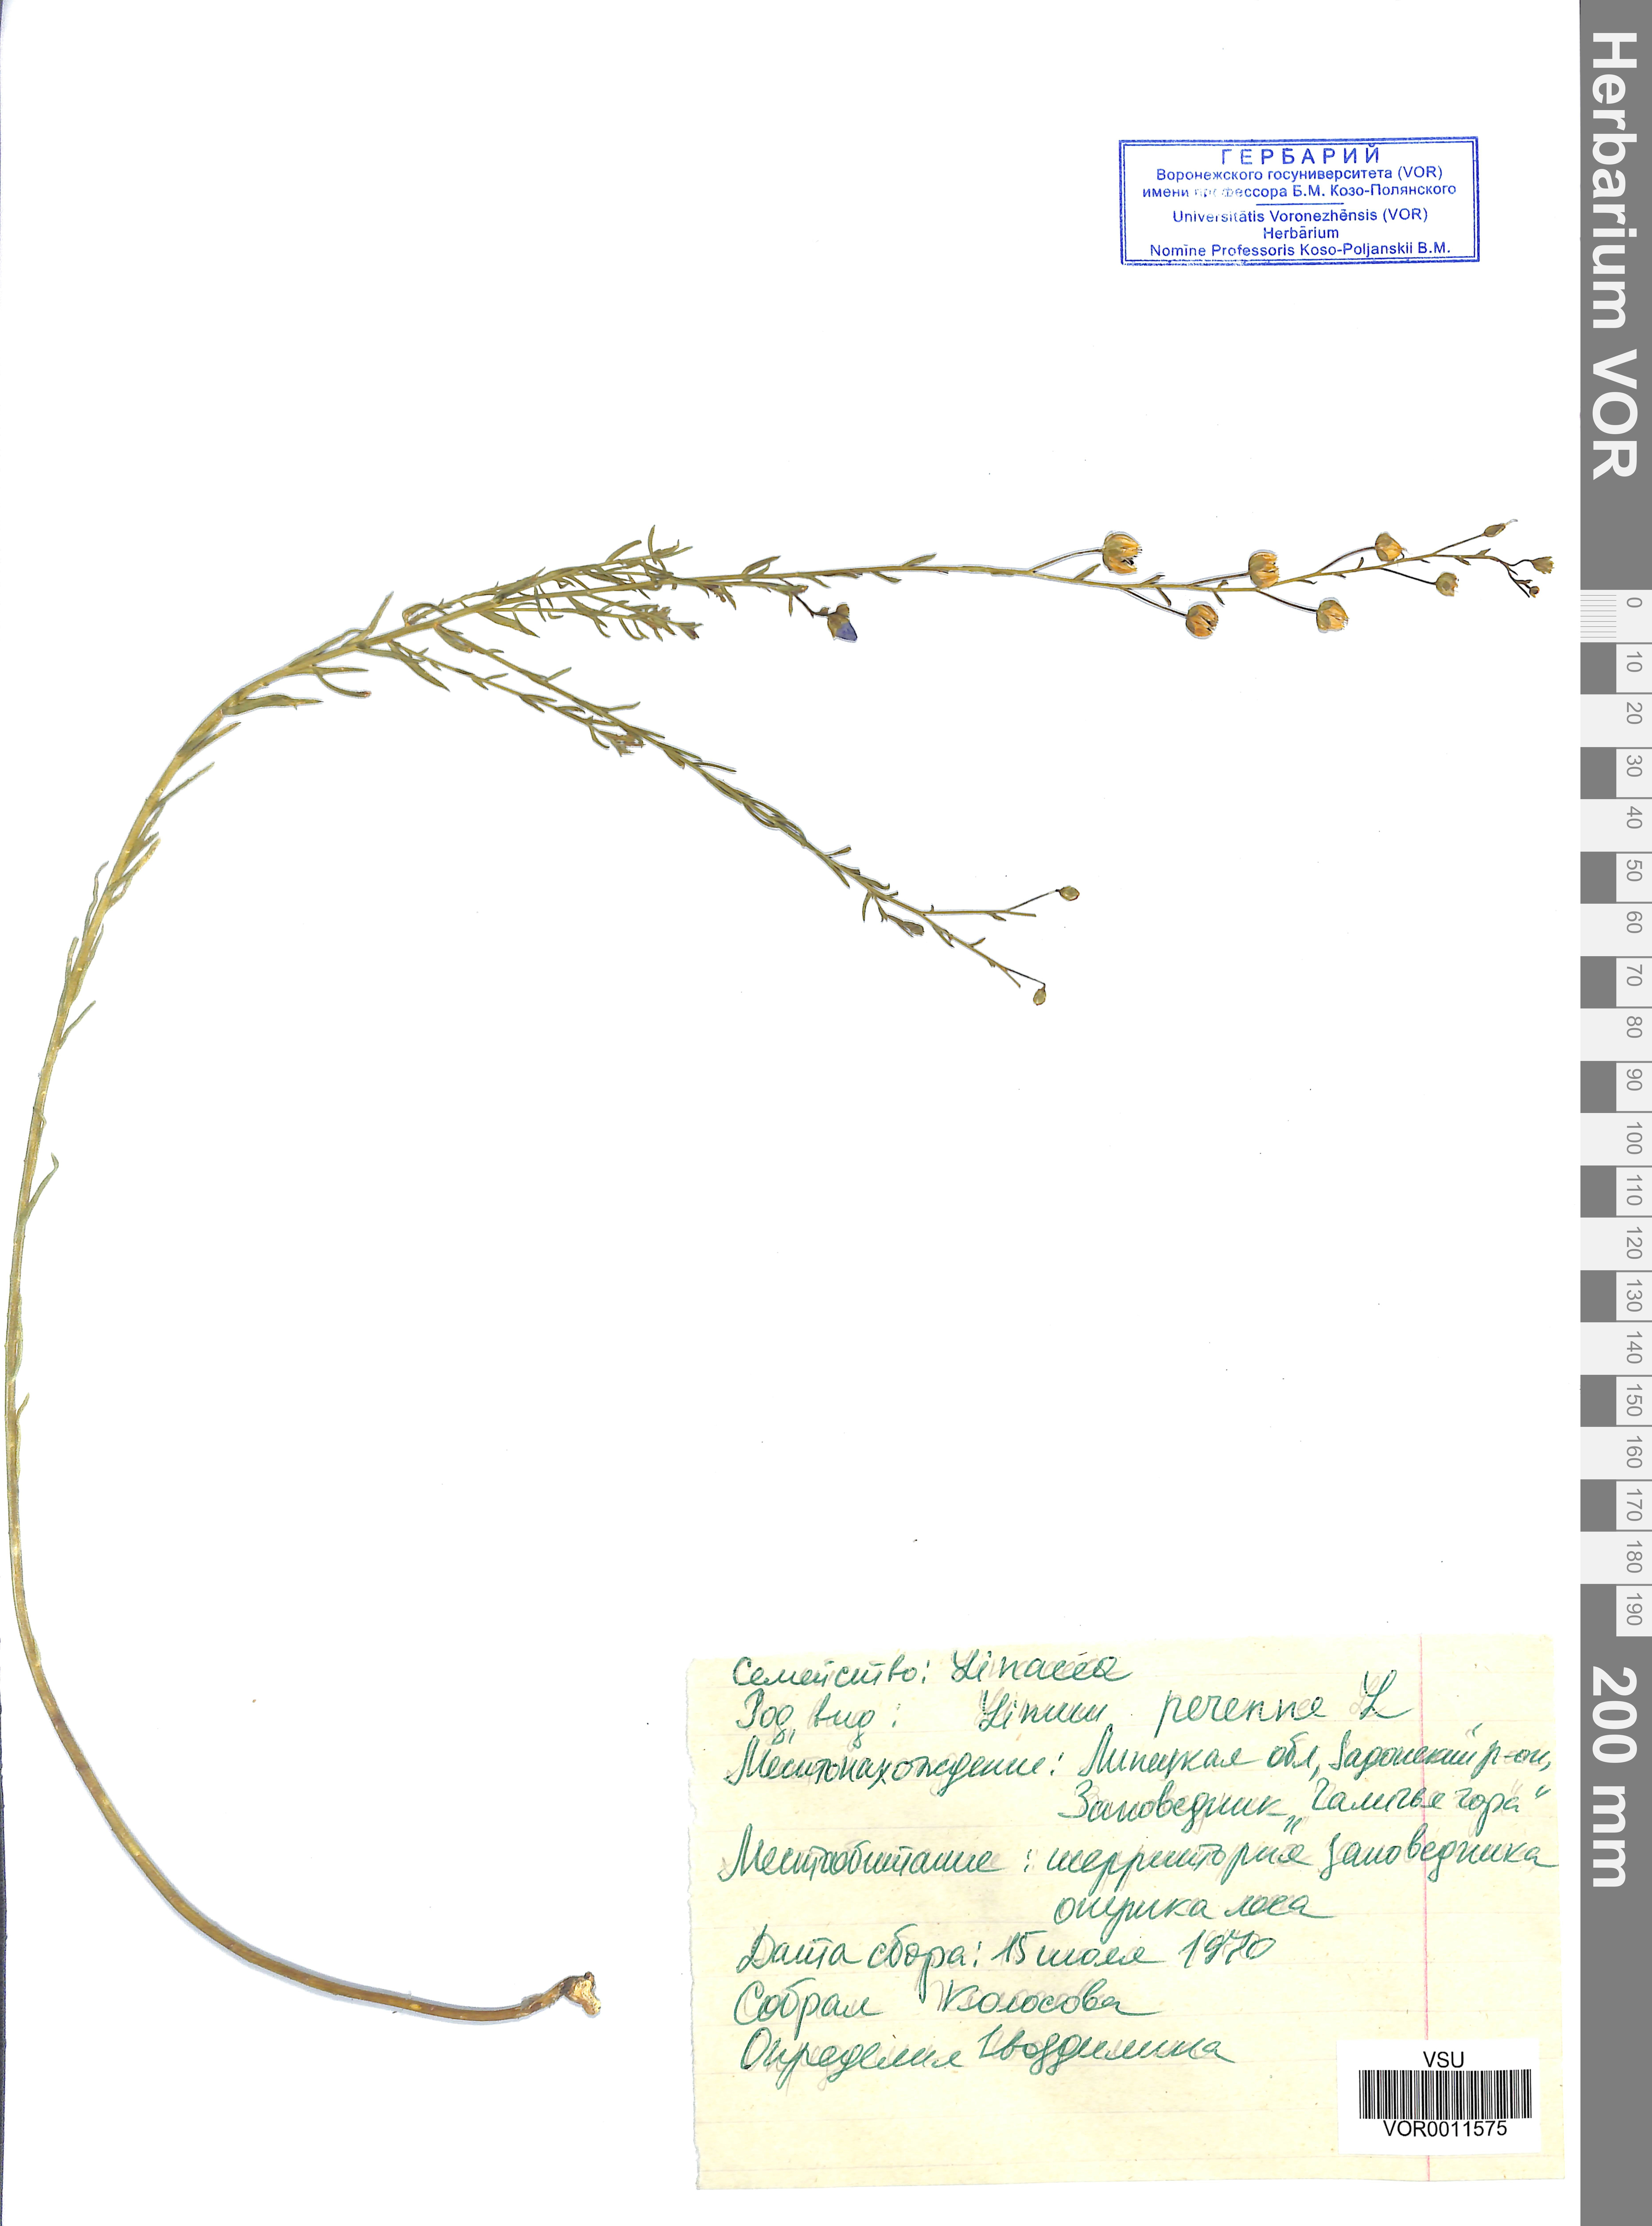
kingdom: Plantae
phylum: Tracheophyta
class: Magnoliopsida
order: Malpighiales
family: Linaceae
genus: Linum
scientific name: Linum perenne
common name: Blue flax
